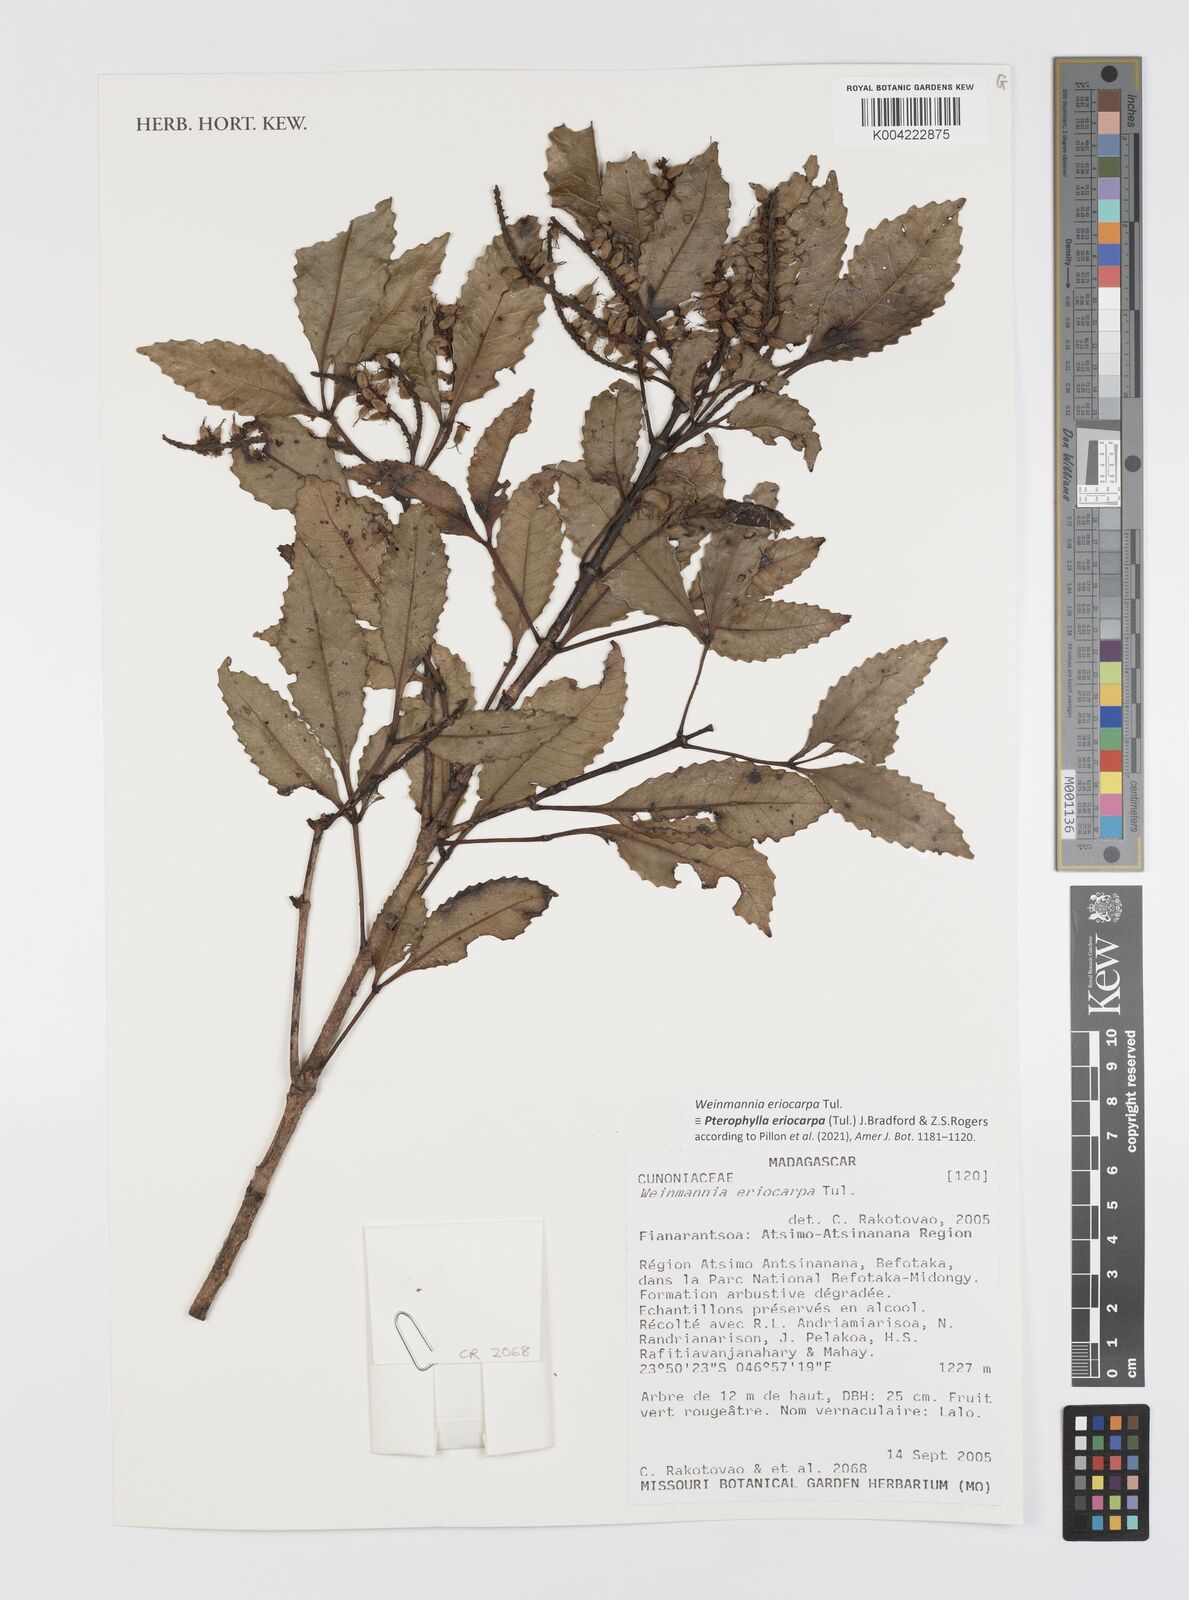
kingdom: Plantae
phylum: Tracheophyta
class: Magnoliopsida
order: Oxalidales
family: Cunoniaceae
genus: Pterophylla
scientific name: Pterophylla eriocarpa
